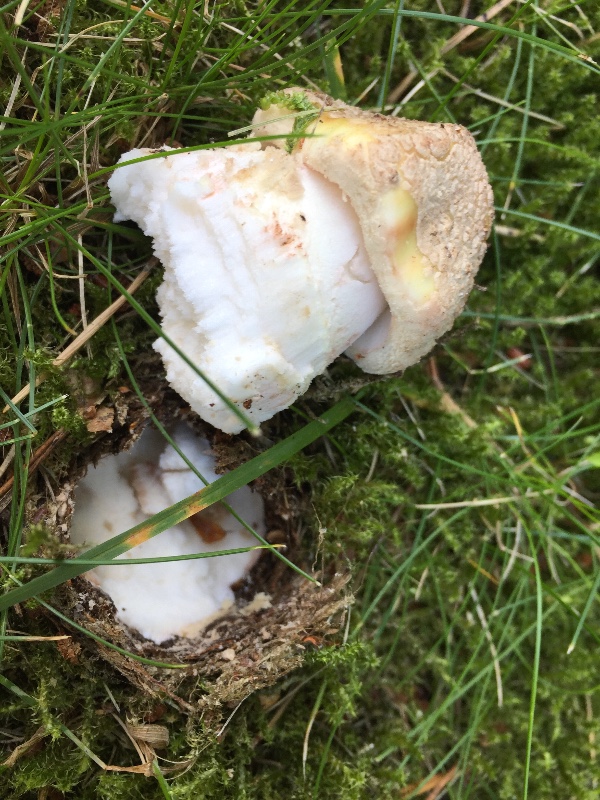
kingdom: Fungi
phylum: Basidiomycota
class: Agaricomycetes
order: Agaricales
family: Amanitaceae
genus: Amanita
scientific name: Amanita rubescens
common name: rødmende fluesvamp
